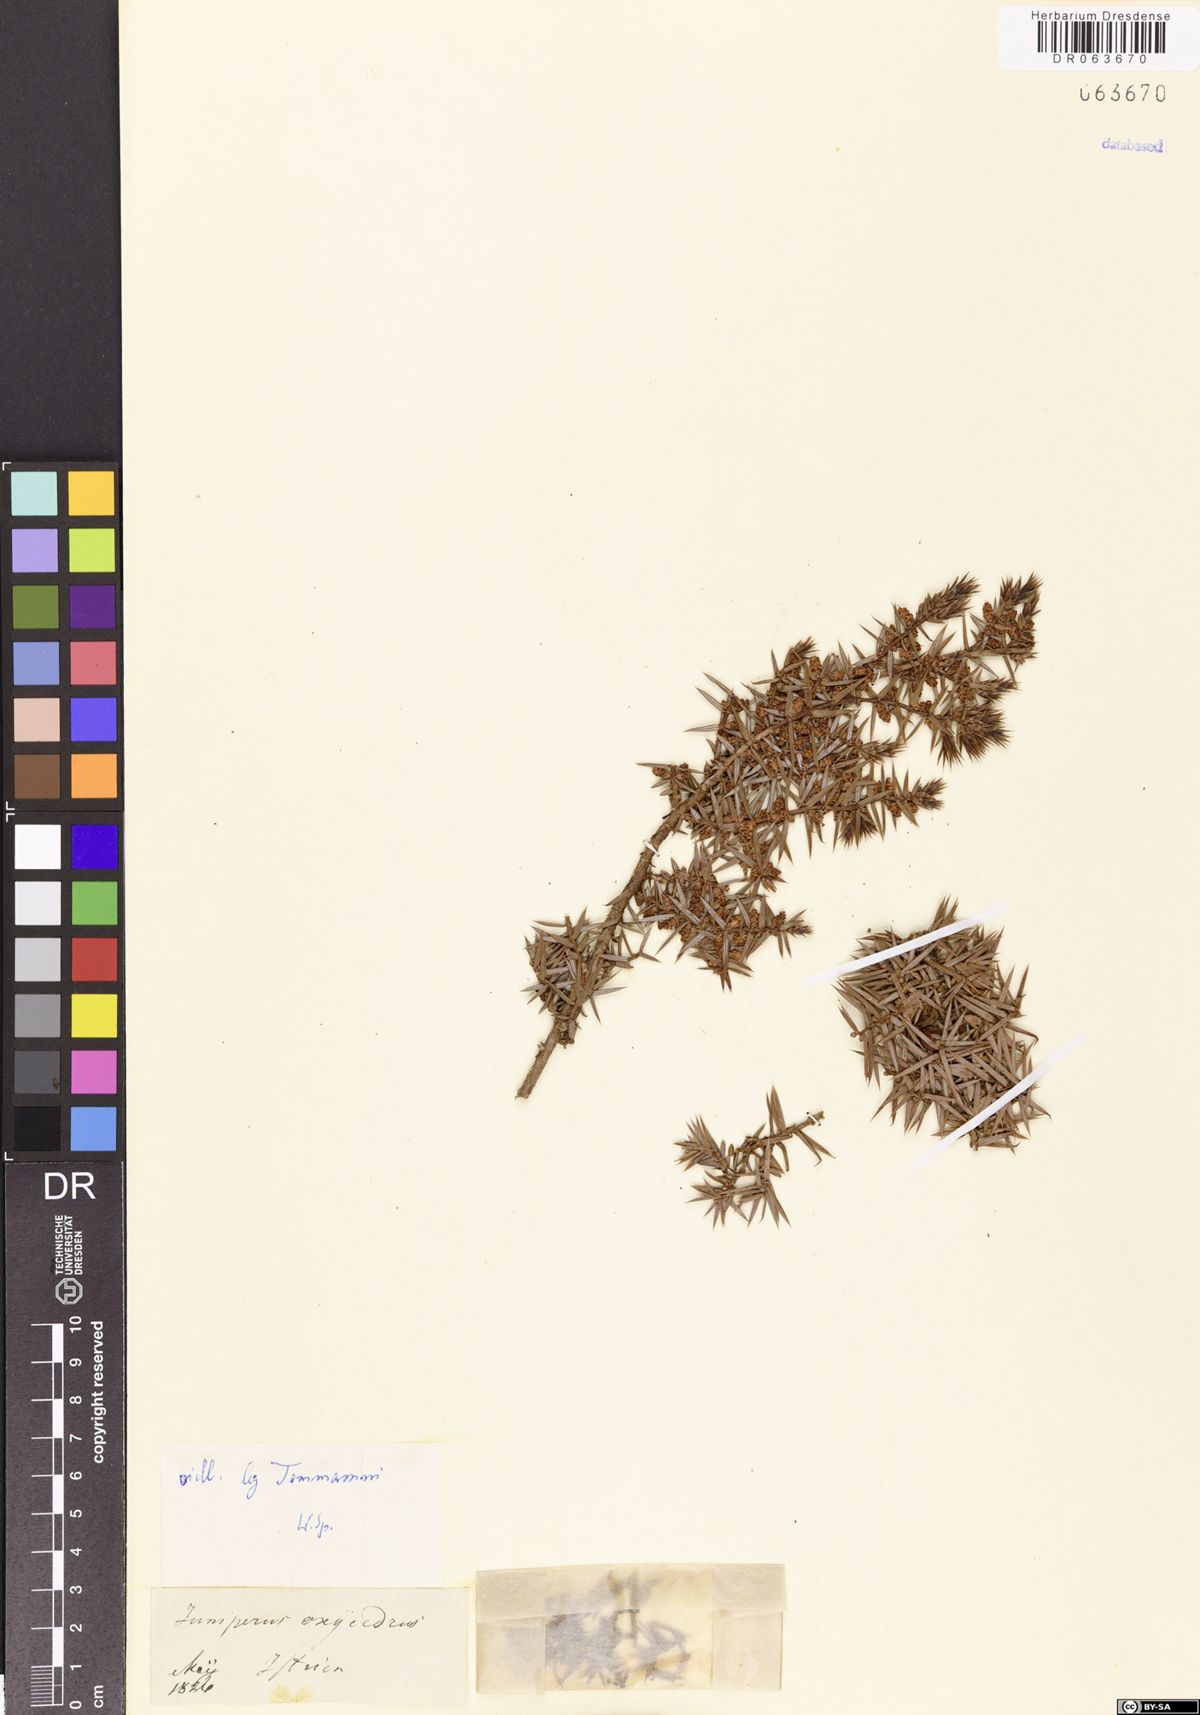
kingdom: Plantae
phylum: Tracheophyta
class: Pinopsida
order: Pinales
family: Cupressaceae
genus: Juniperus
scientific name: Juniperus oxycedrus
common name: Prickly juniper
